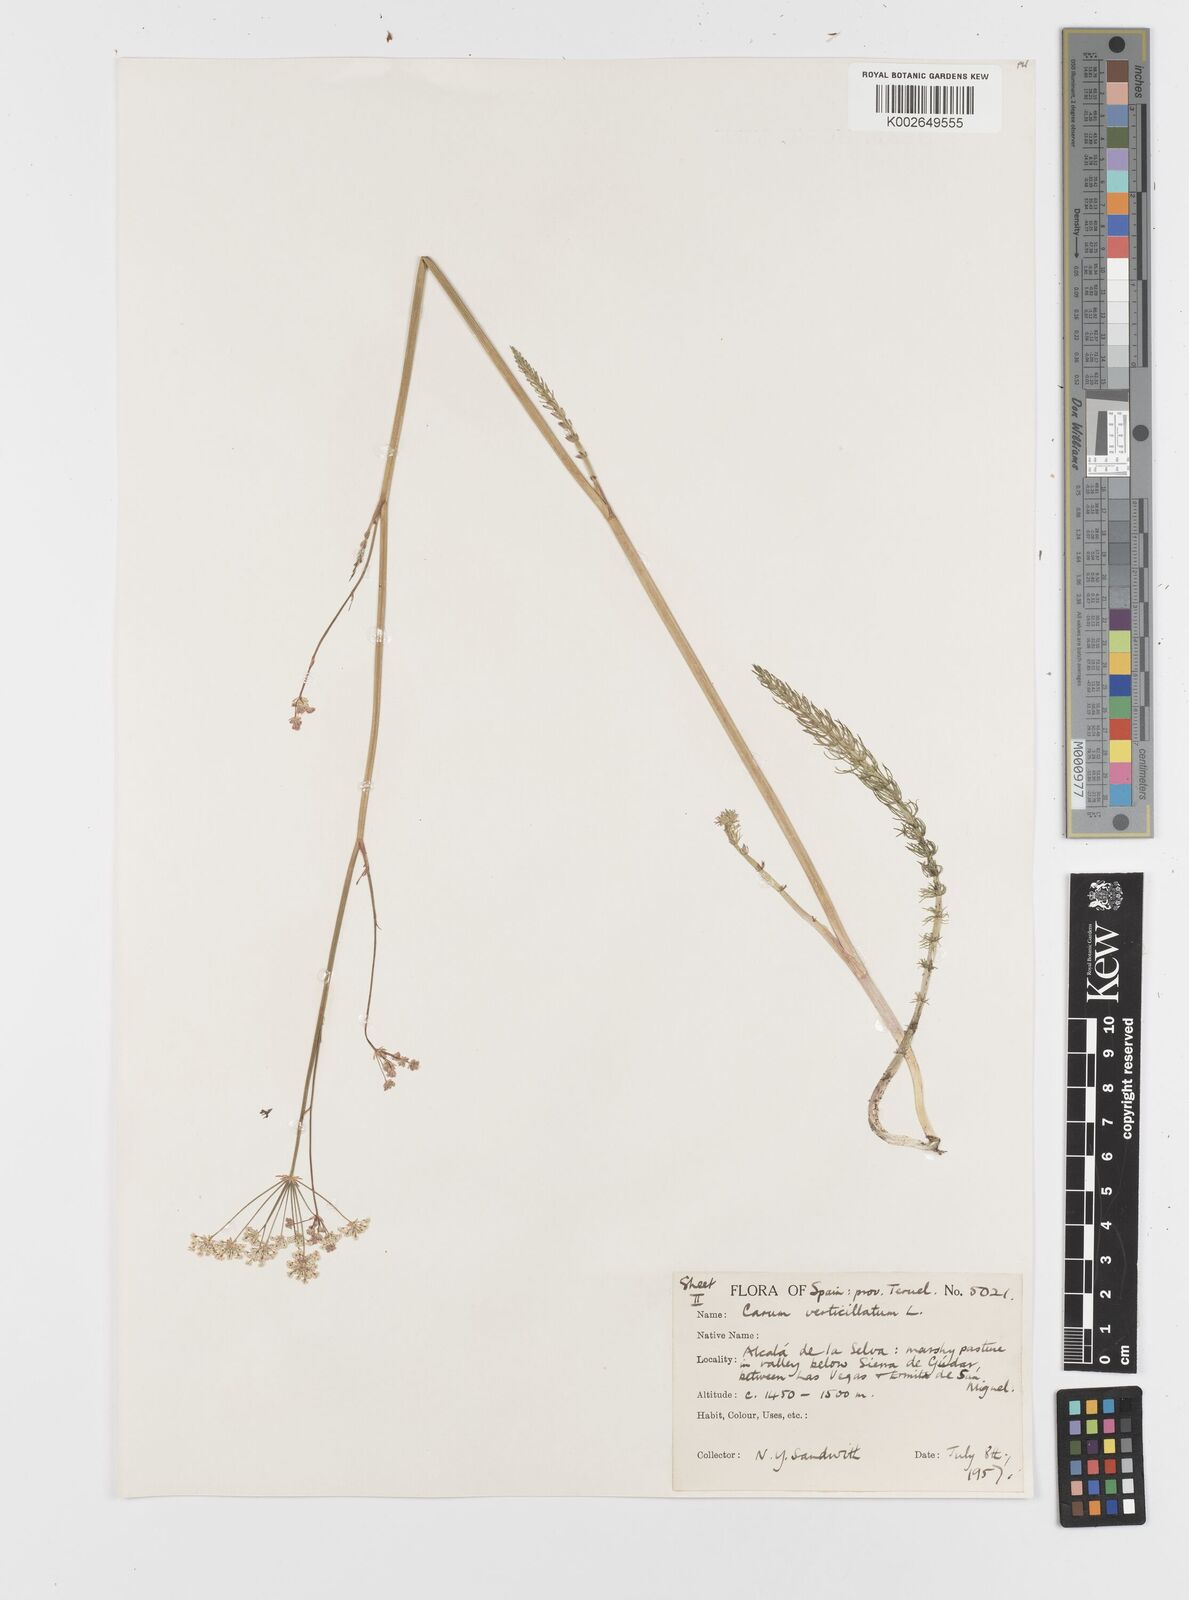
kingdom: Plantae
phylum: Tracheophyta
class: Magnoliopsida
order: Apiales
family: Apiaceae
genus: Trocdaris
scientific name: Trocdaris verticillatum
